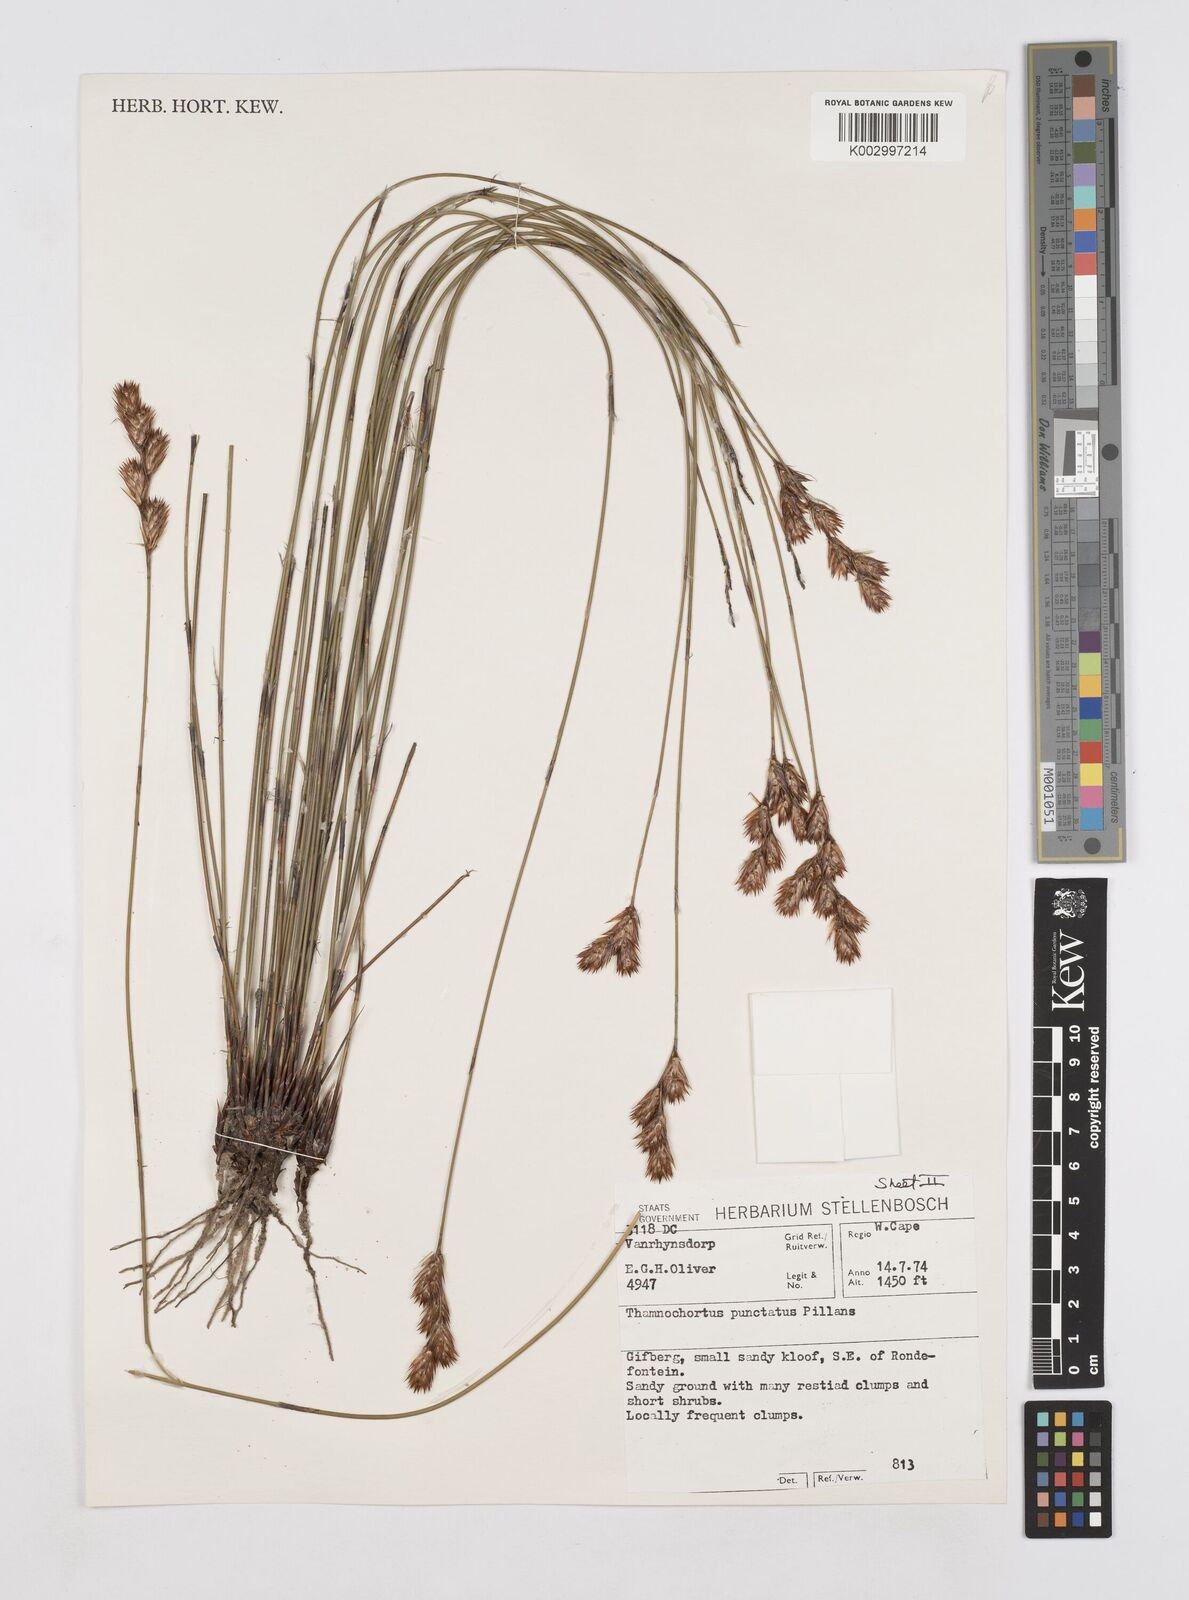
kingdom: Plantae
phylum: Tracheophyta
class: Liliopsida
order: Poales
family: Restionaceae
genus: Thamnochortus
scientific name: Thamnochortus punctatus
